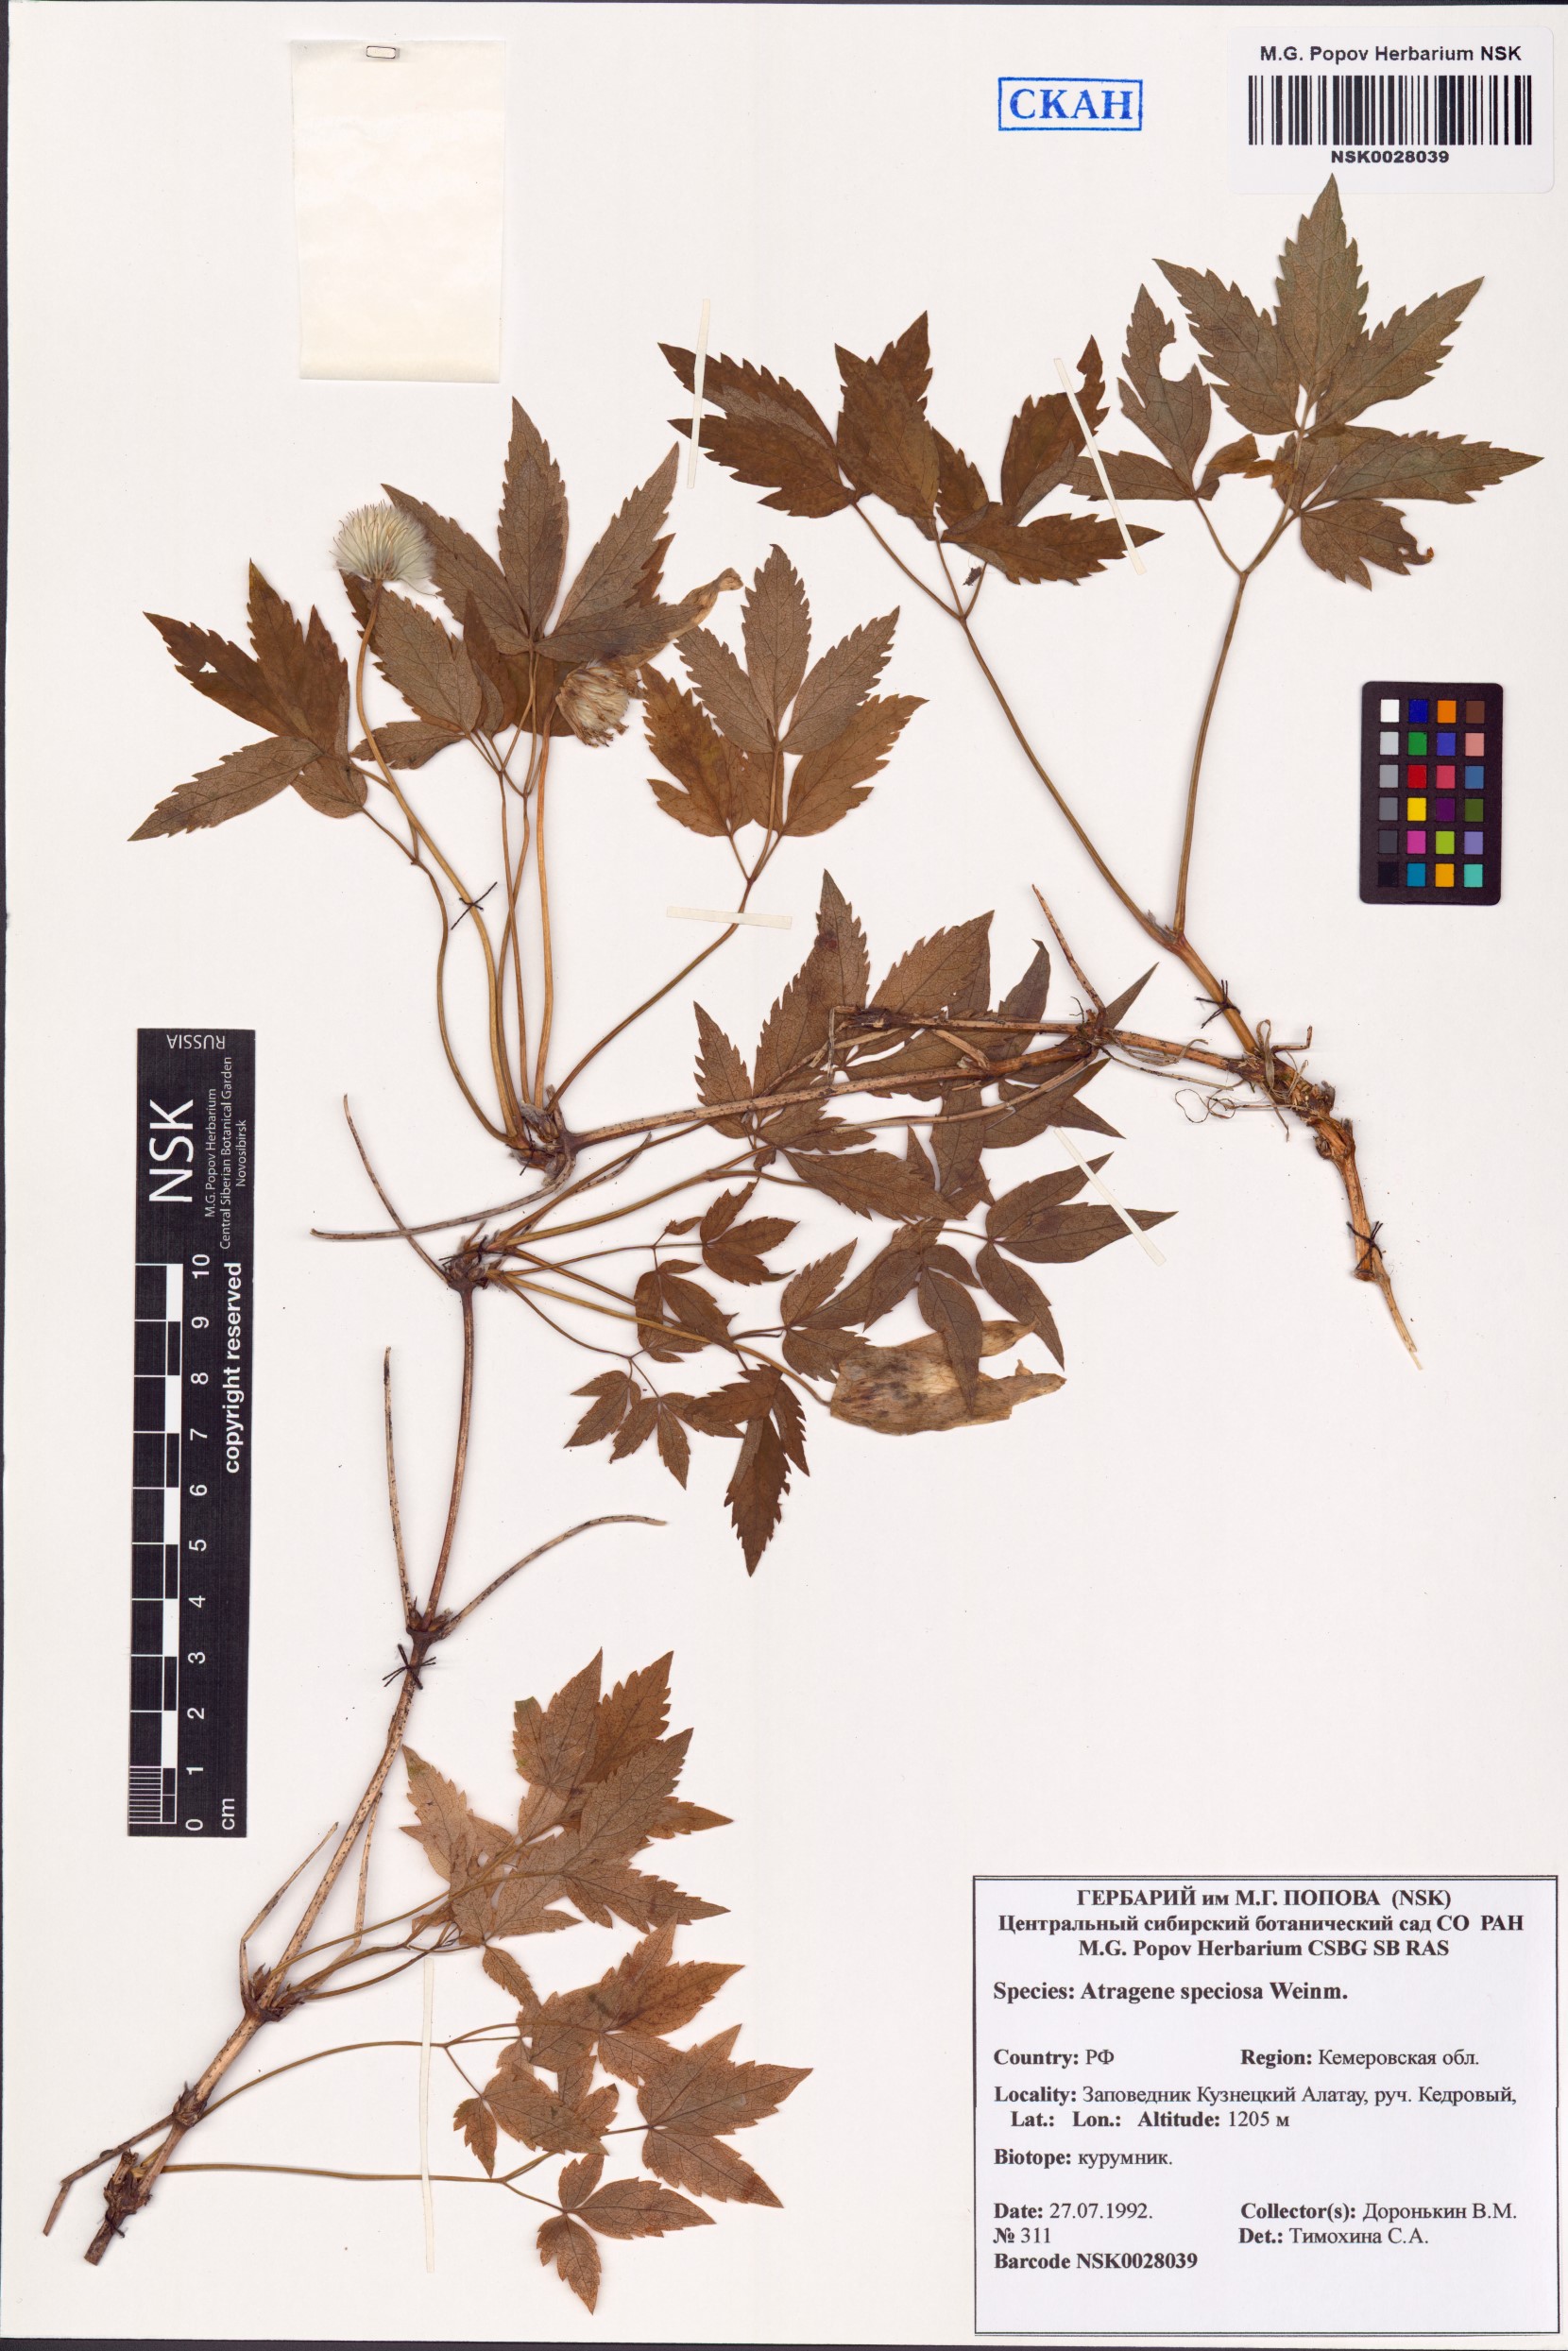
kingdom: Plantae
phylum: Tracheophyta
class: Magnoliopsida
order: Ranunculales
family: Ranunculaceae
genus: Clematis
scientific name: Clematis sibirica
